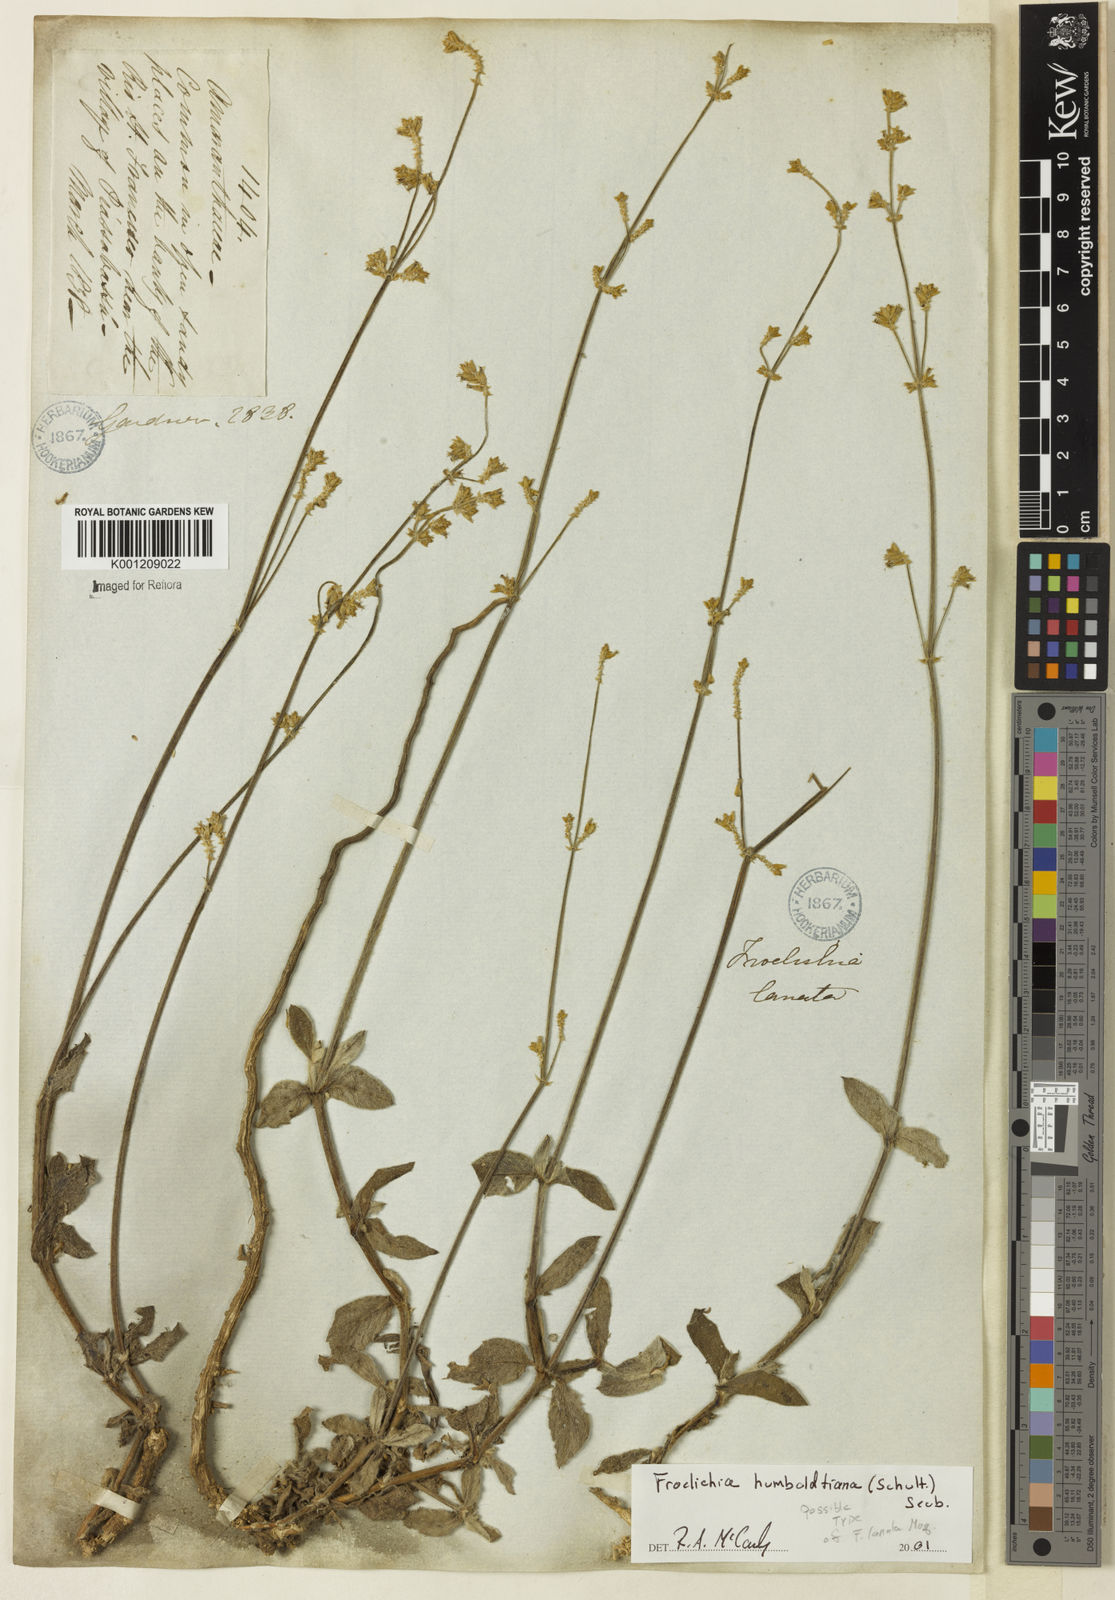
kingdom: Plantae
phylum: Tracheophyta
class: Magnoliopsida
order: Caryophyllales
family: Amaranthaceae
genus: Froelichia
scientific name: Froelichia humboldtiana
